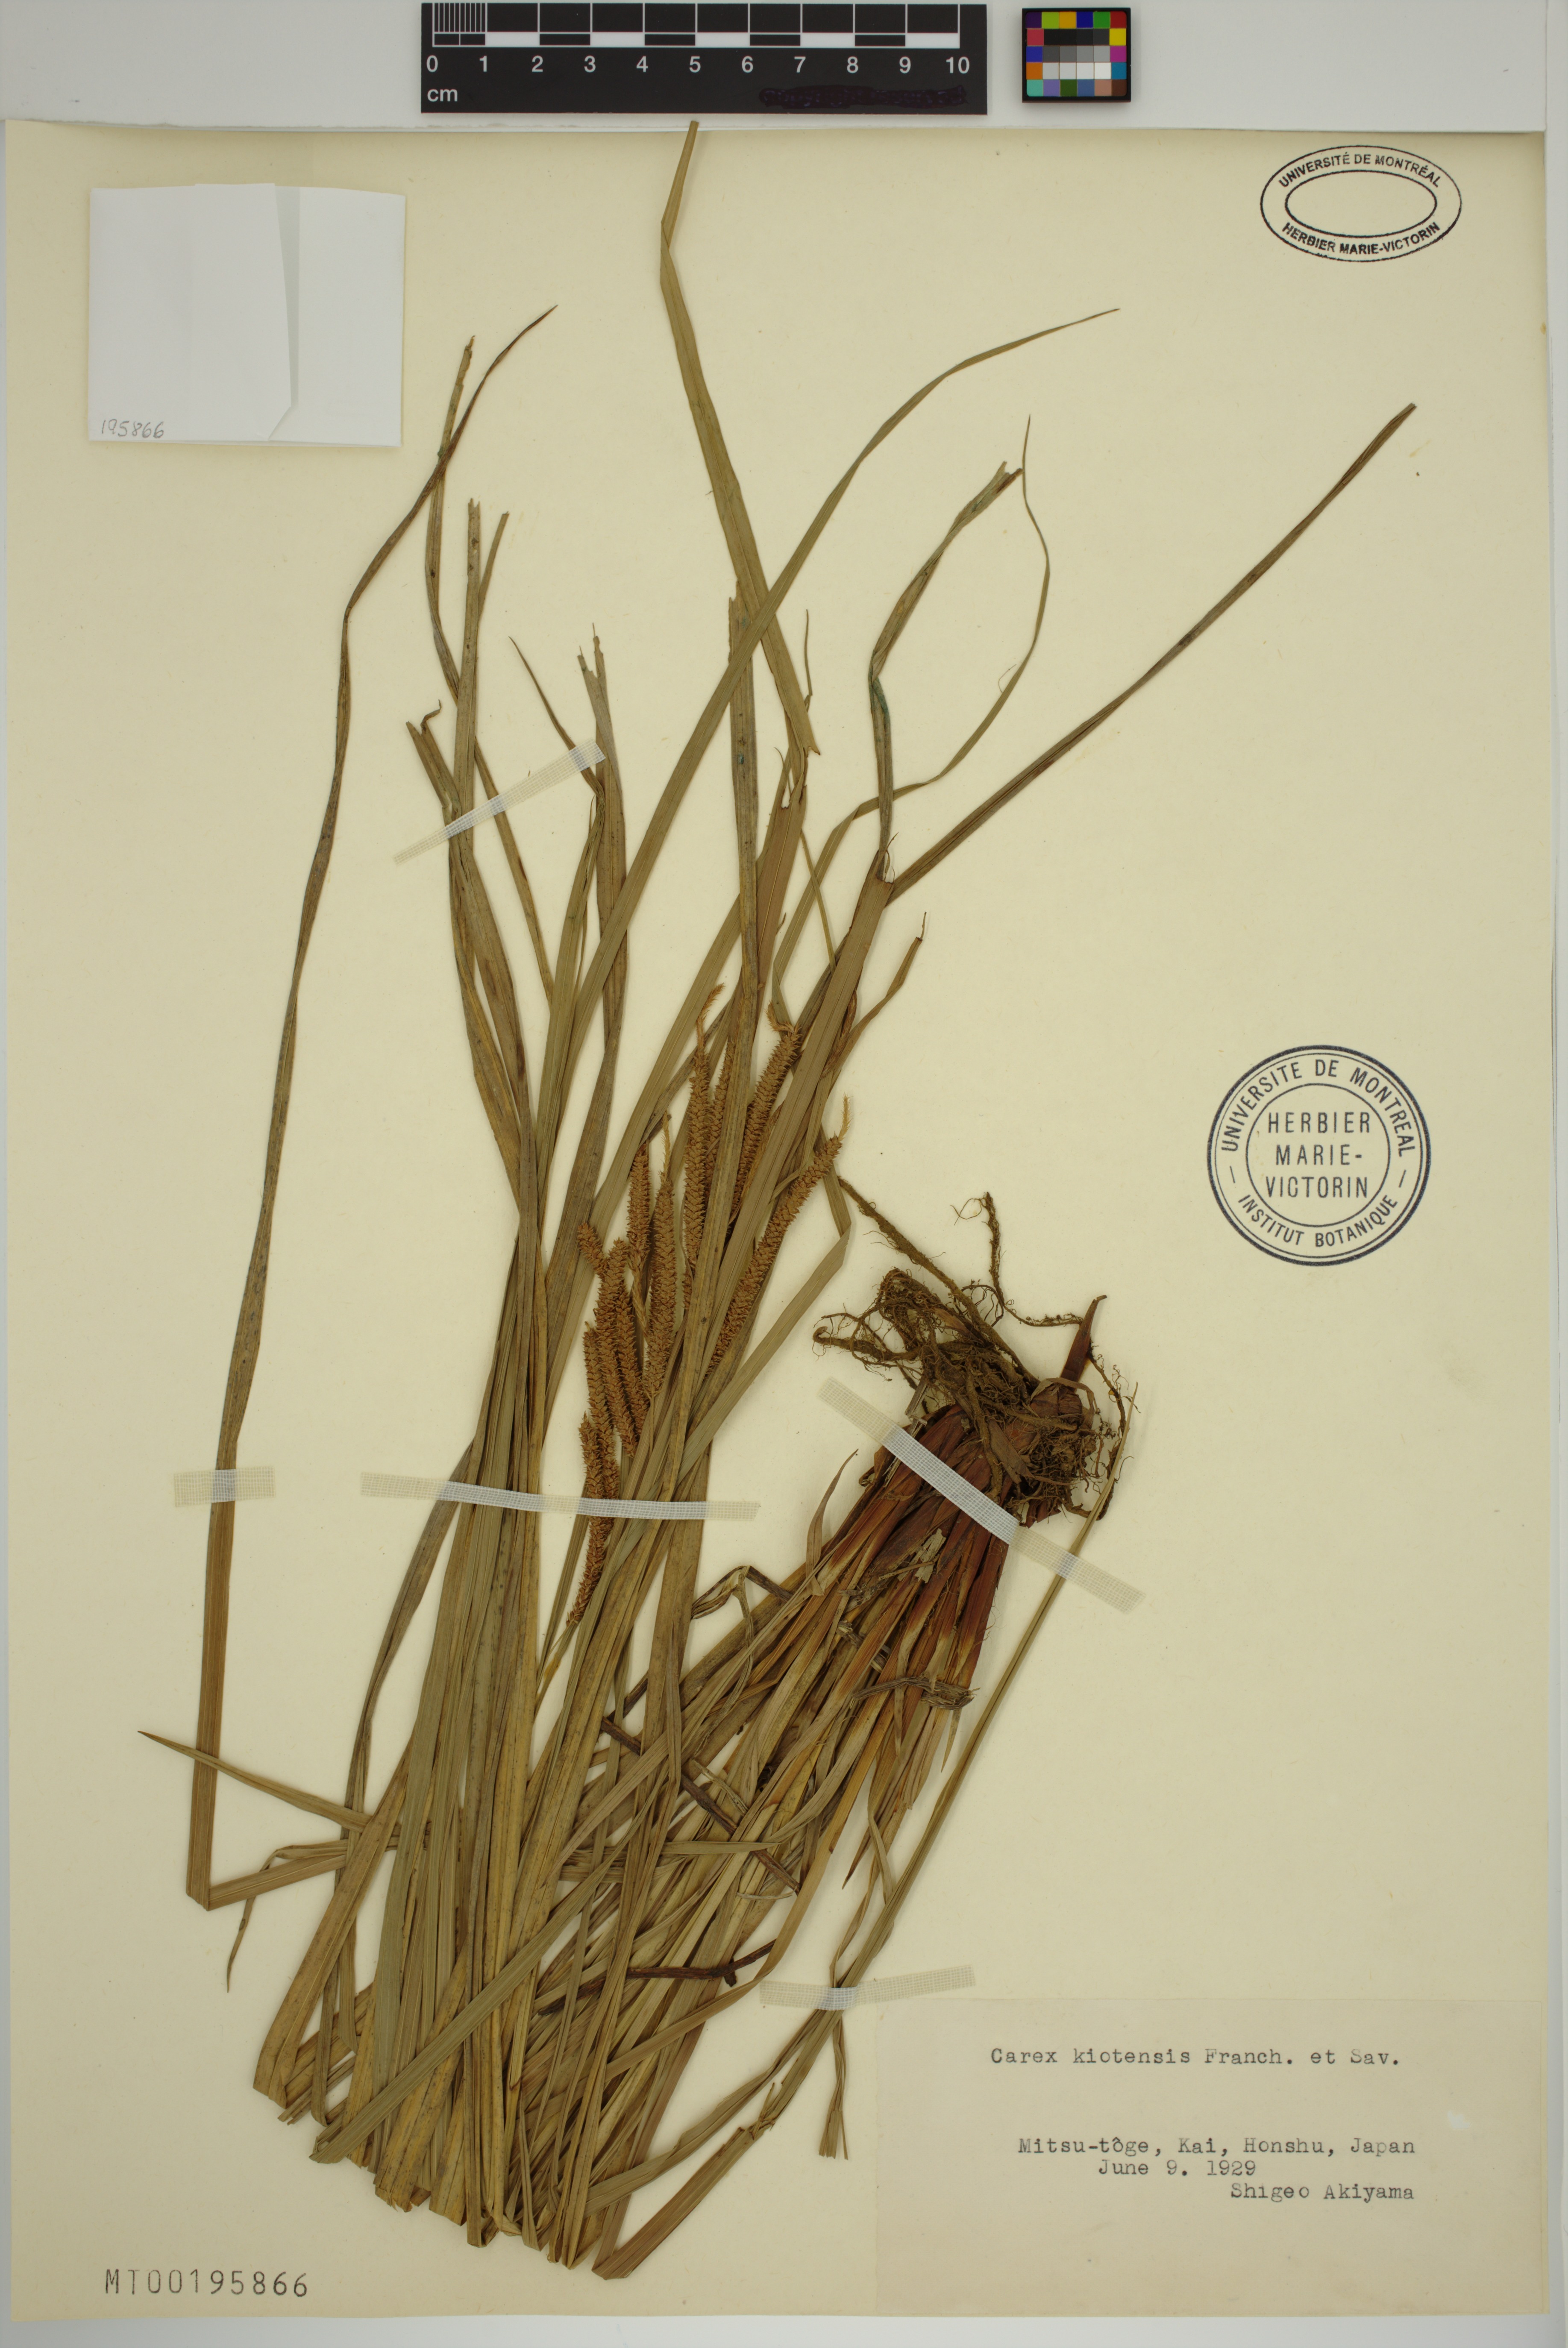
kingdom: Plantae
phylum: Tracheophyta
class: Liliopsida
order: Poales
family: Cyperaceae
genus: Carex
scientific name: Carex kiotensis
